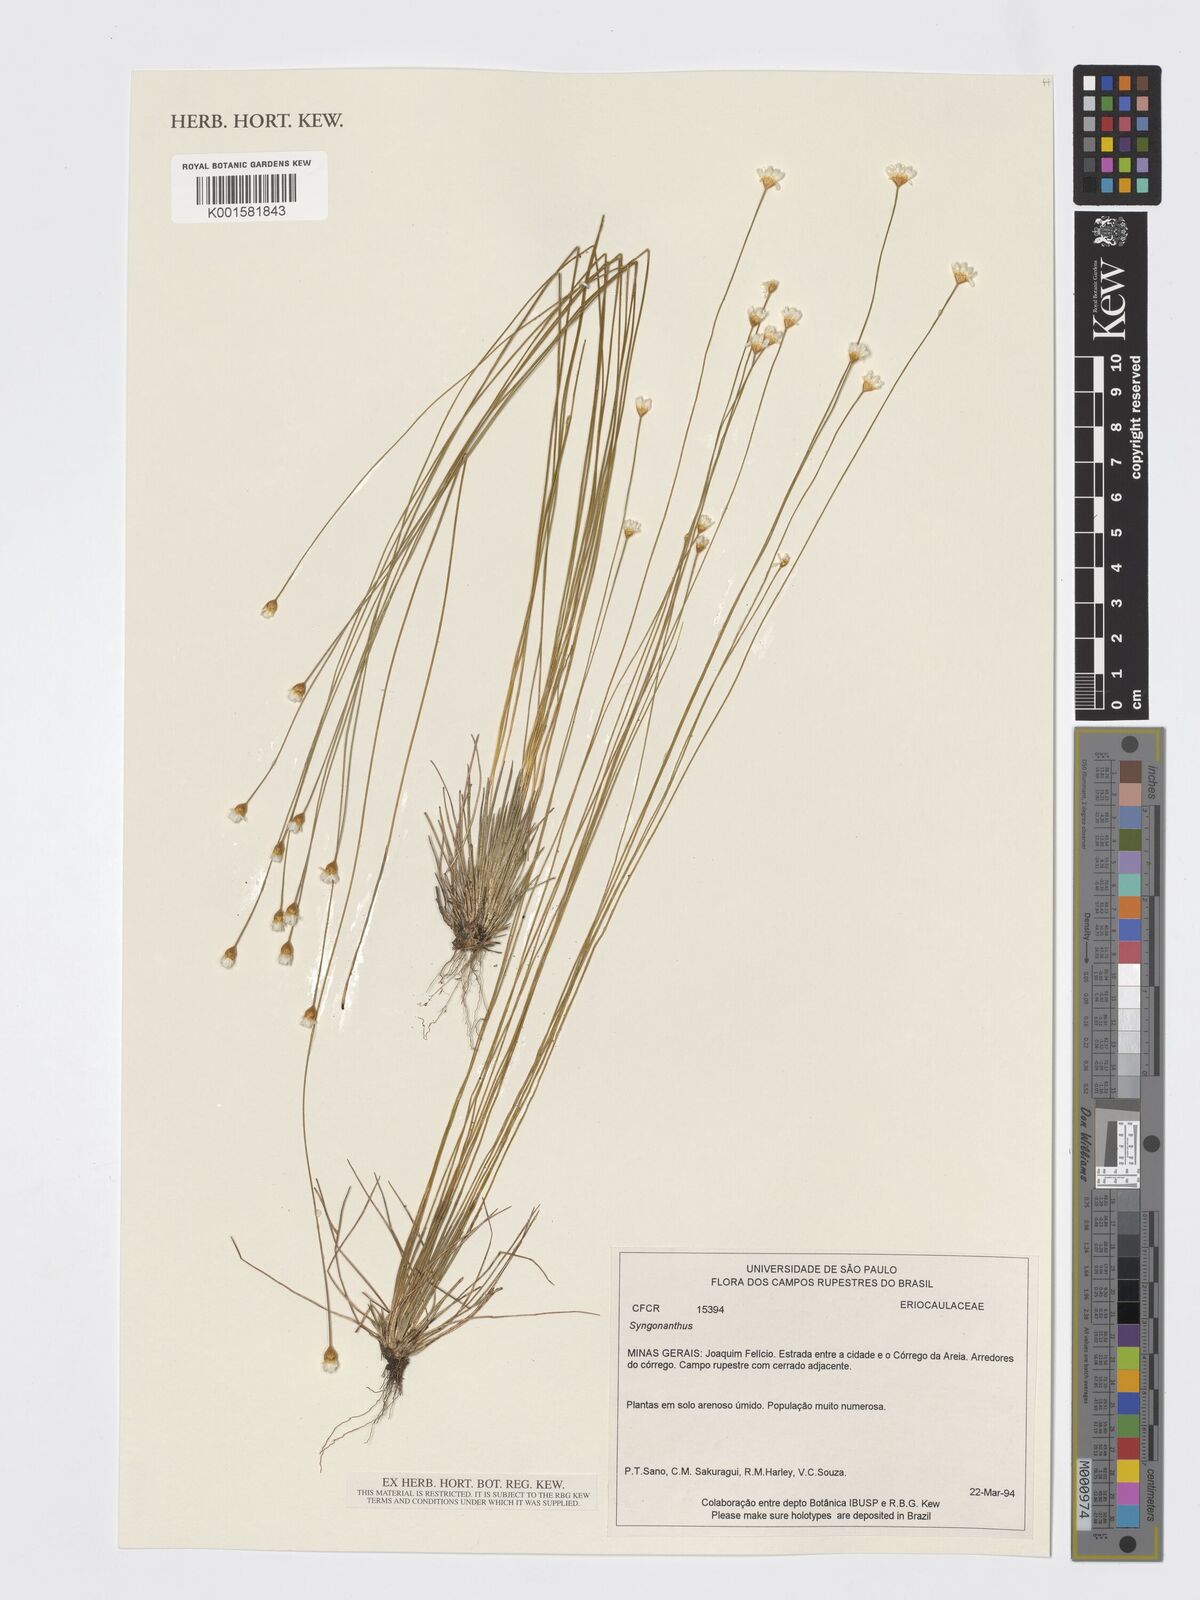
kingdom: Plantae
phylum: Tracheophyta
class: Liliopsida
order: Poales
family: Eriocaulaceae
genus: Syngonanthus
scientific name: Syngonanthus
